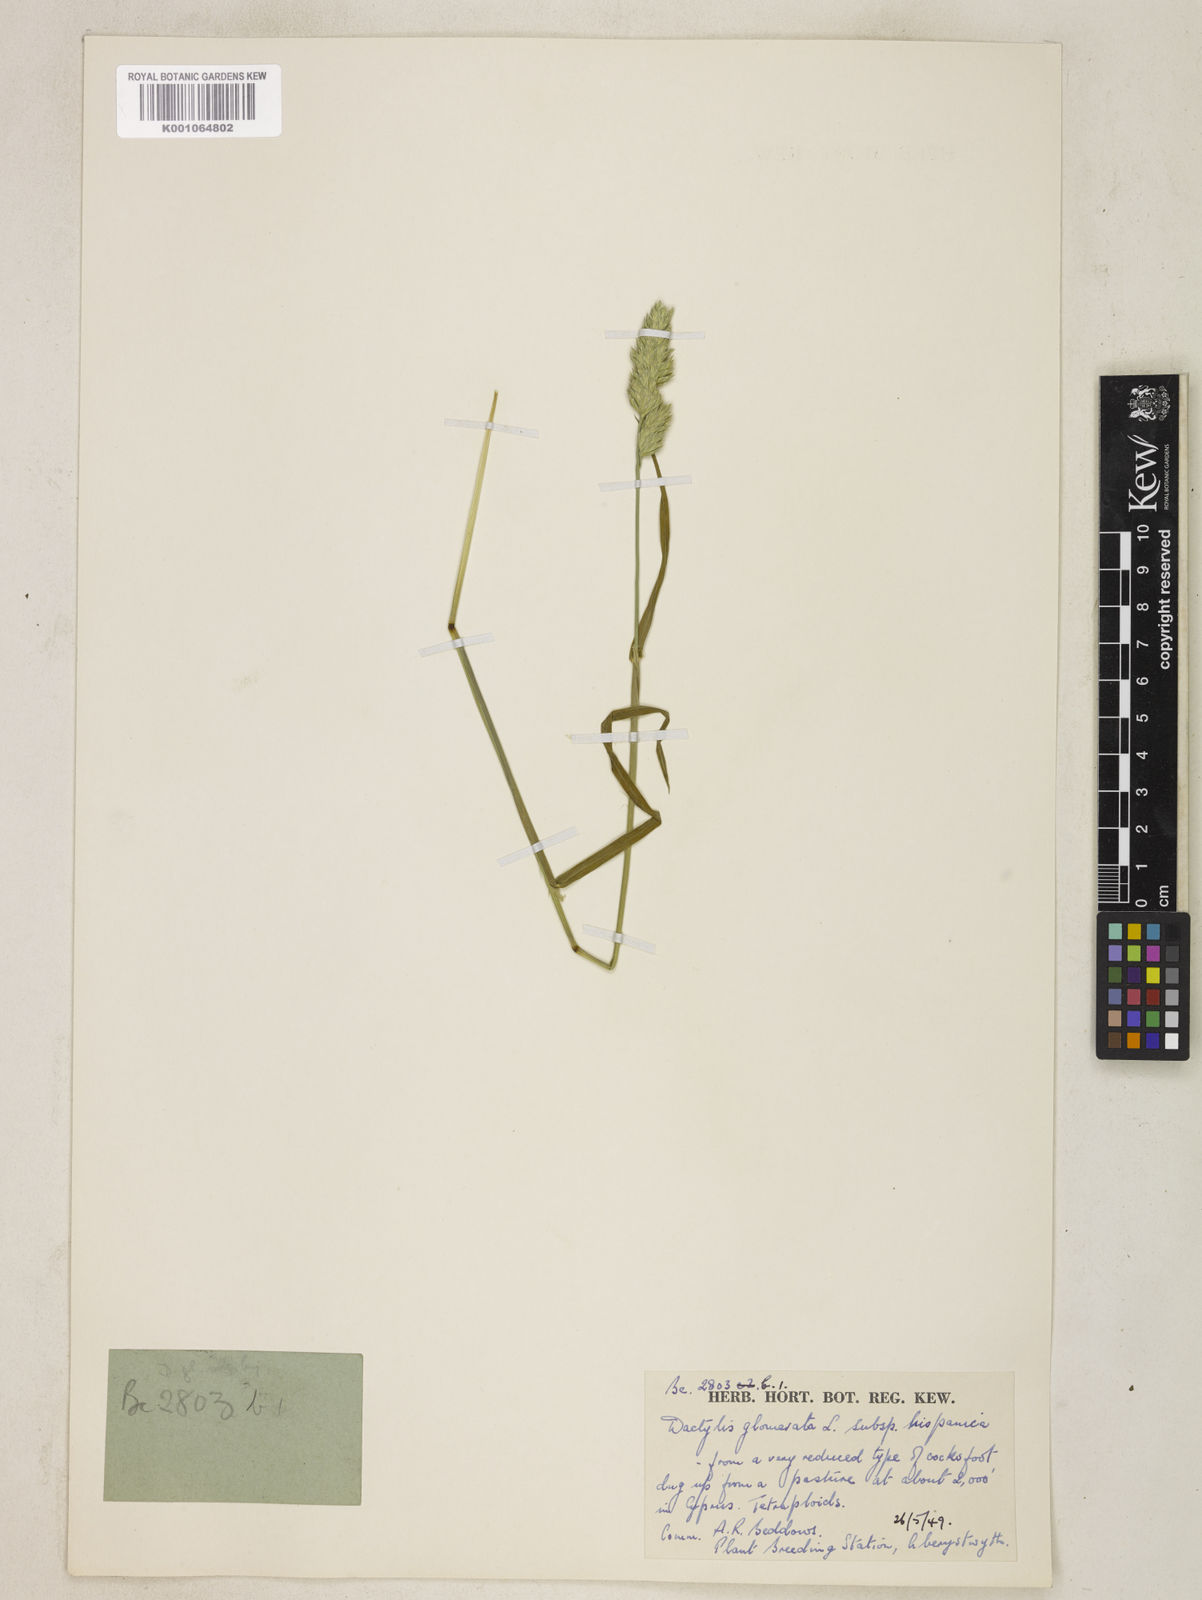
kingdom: Plantae
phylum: Tracheophyta
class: Liliopsida
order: Poales
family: Poaceae
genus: Dactylis
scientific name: Dactylis glomerata
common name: Orchardgrass
